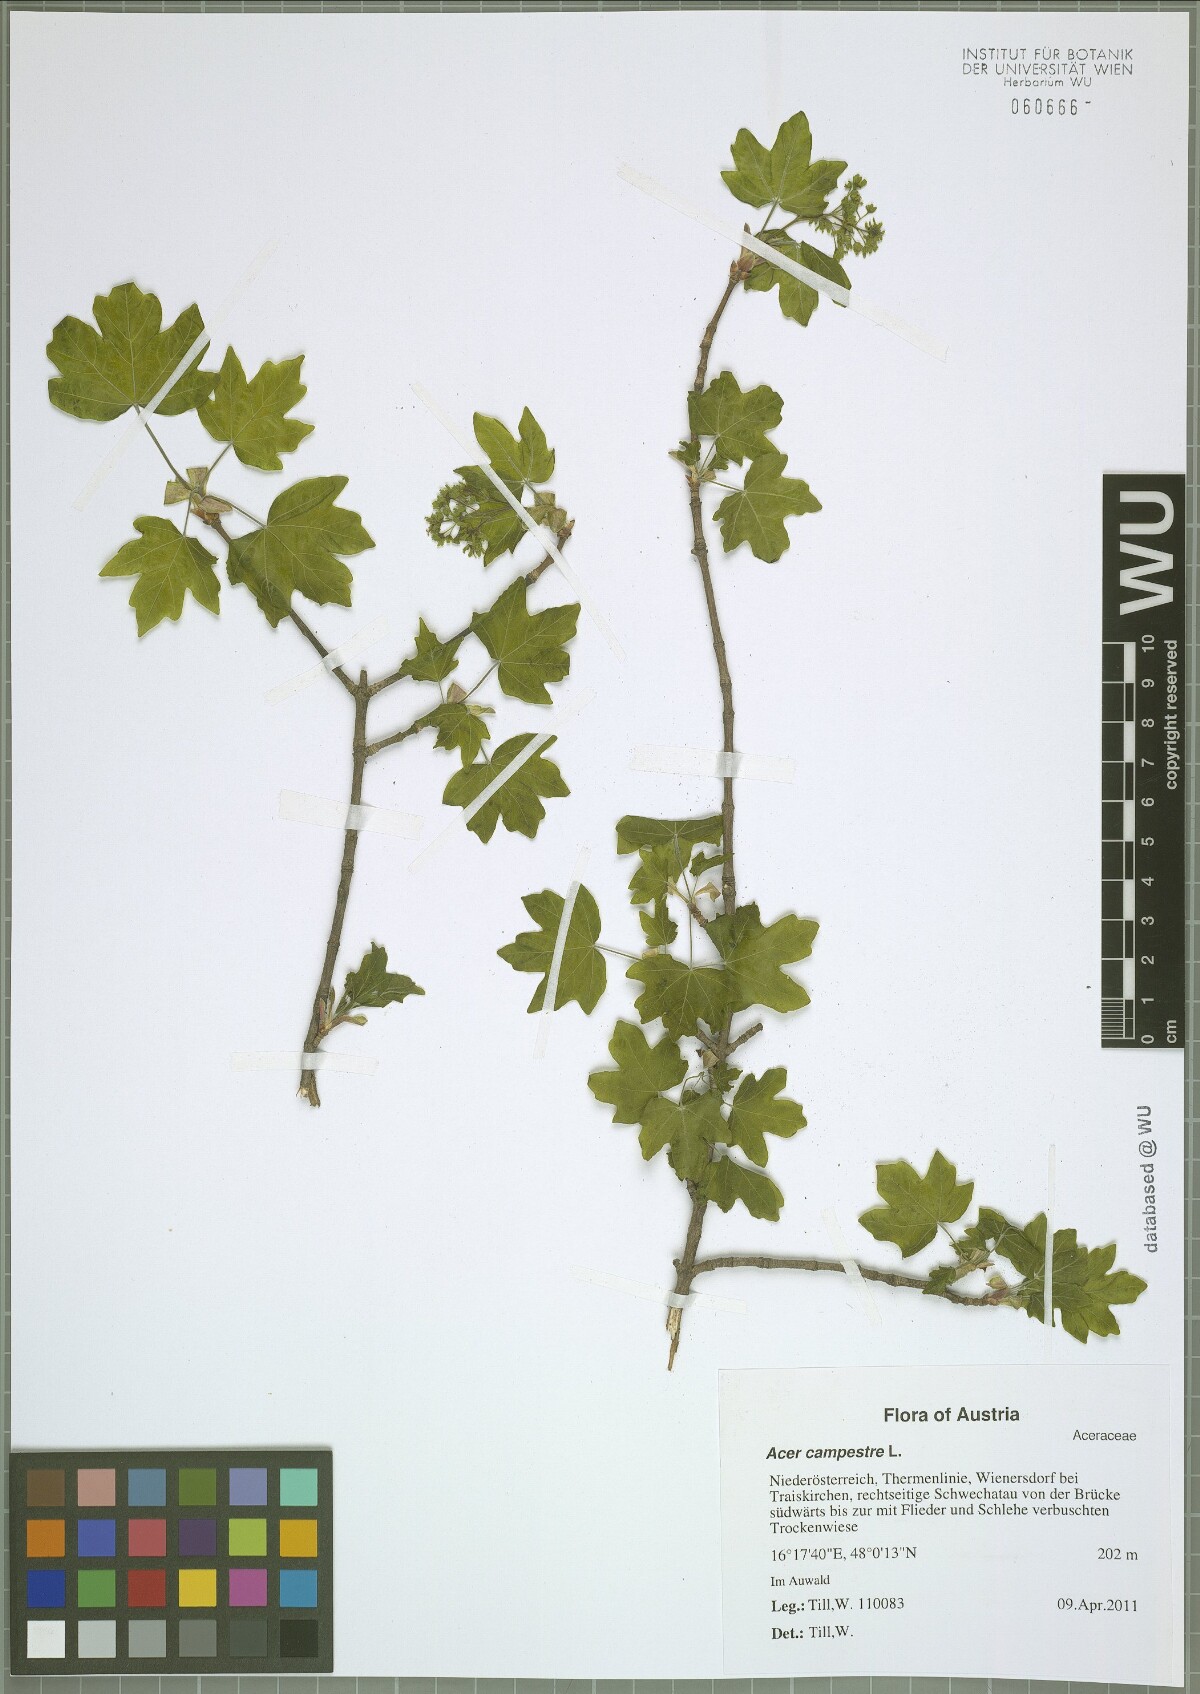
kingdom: Plantae
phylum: Tracheophyta
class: Magnoliopsida
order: Sapindales
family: Sapindaceae
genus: Acer
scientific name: Acer campestre
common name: Field maple
